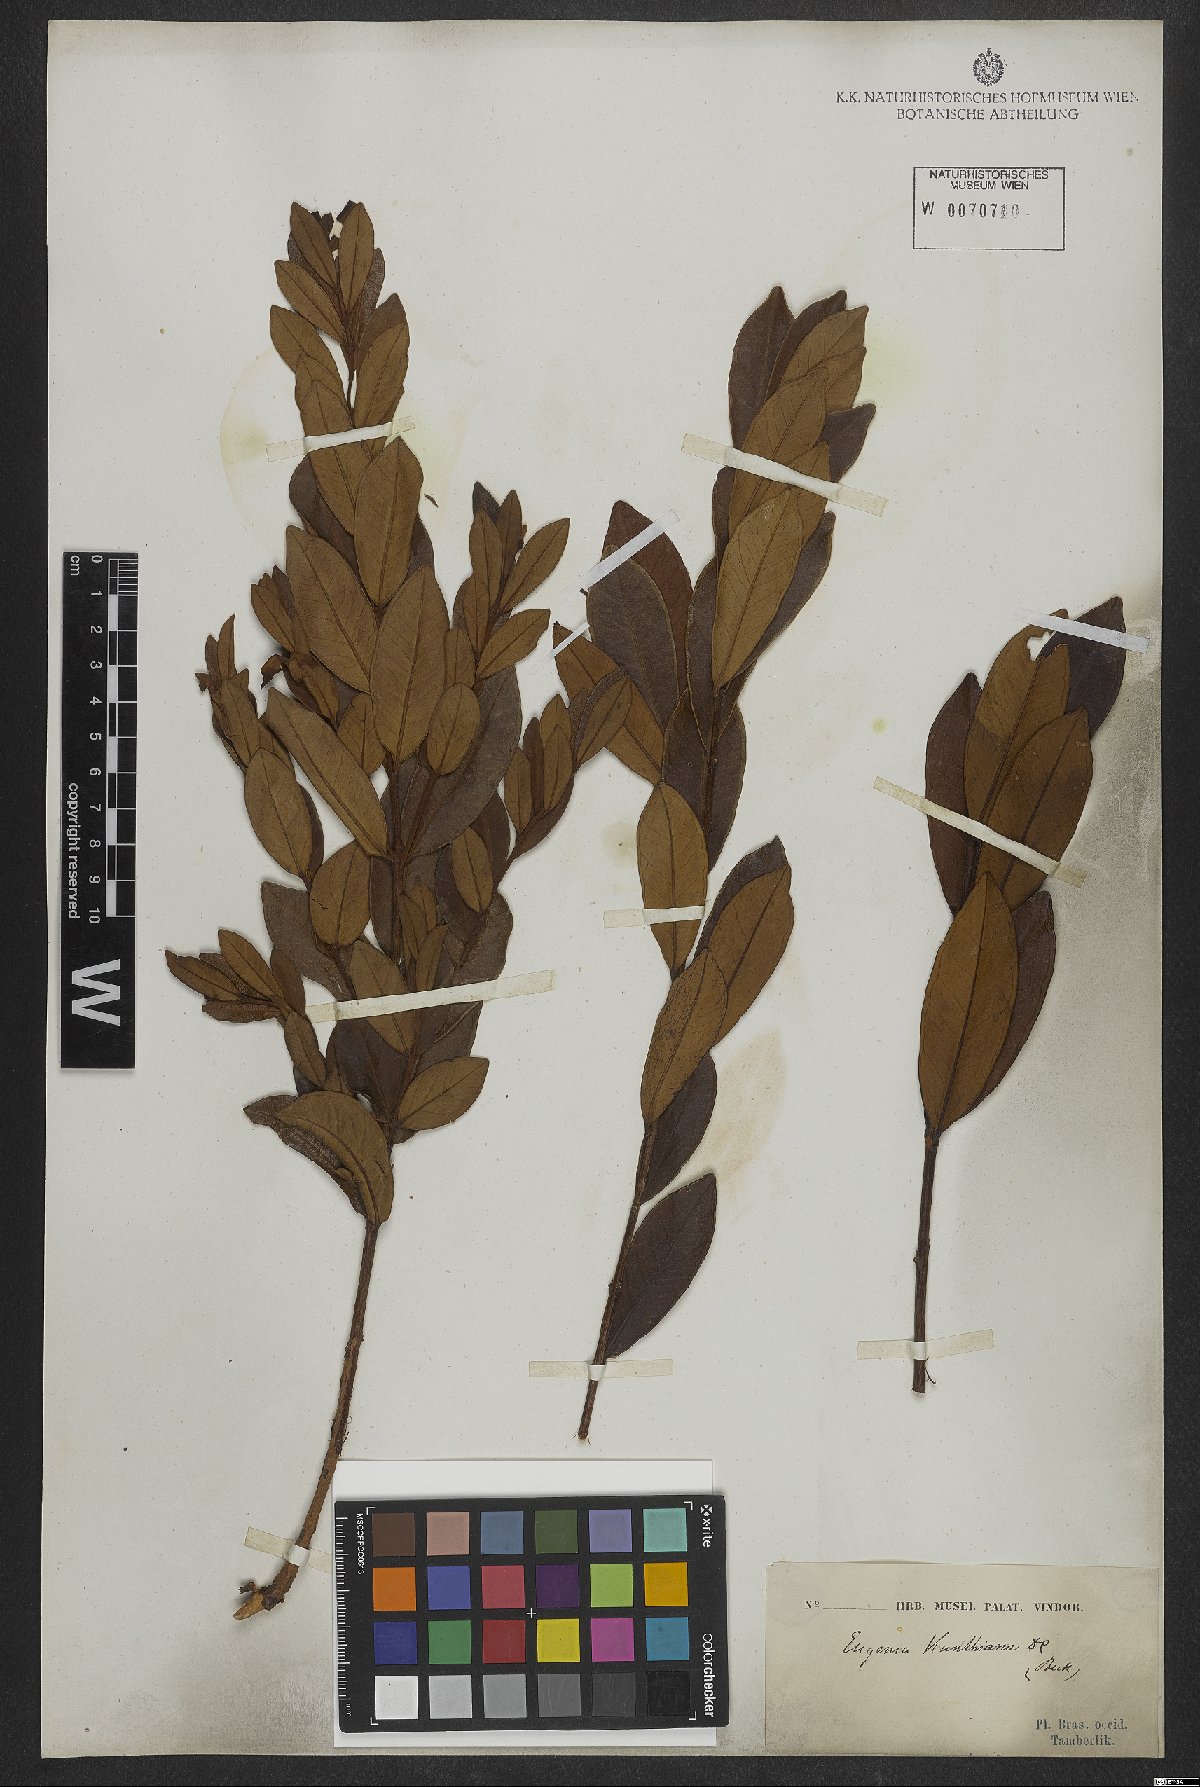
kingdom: Plantae
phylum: Tracheophyta
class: Magnoliopsida
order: Myrtales
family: Myrtaceae
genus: Eugenia
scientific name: Eugenia punicifolia
